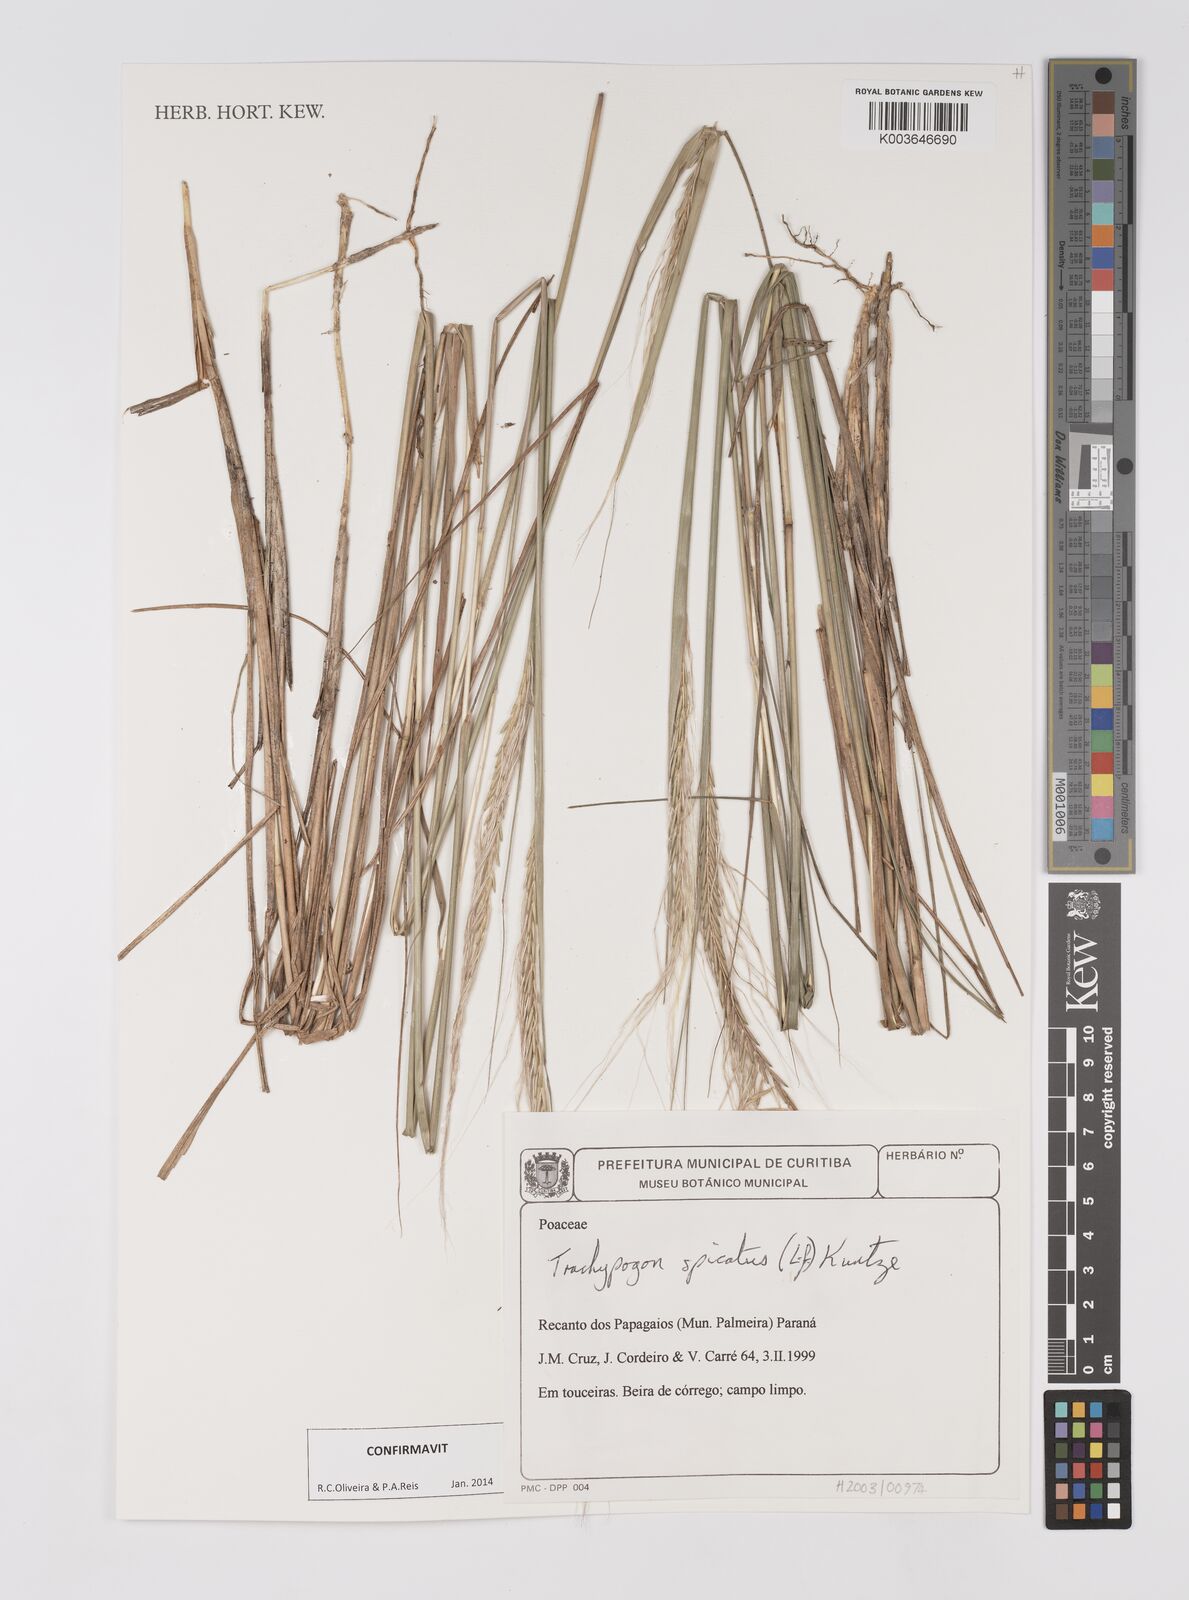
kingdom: Plantae
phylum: Tracheophyta
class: Liliopsida
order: Poales
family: Poaceae
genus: Trachypogon
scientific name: Trachypogon spicatus
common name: Crinkle-awn
